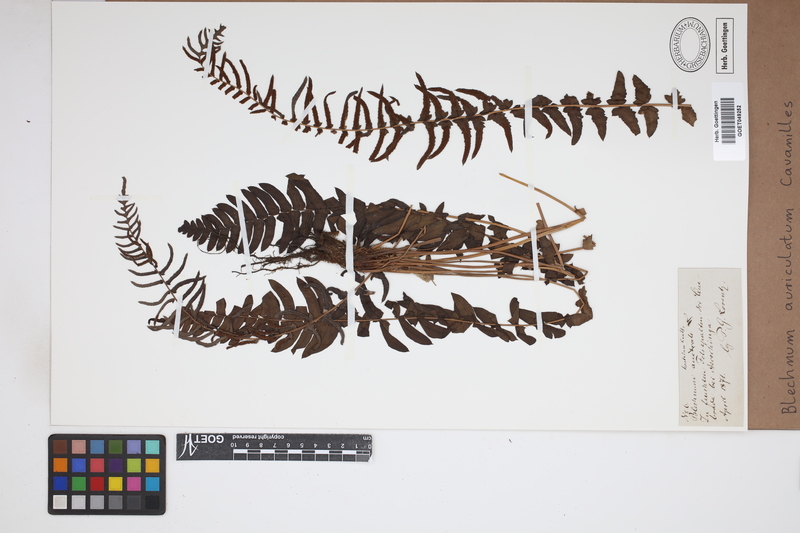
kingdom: Plantae
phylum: Tracheophyta
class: Polypodiopsida
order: Polypodiales
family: Blechnaceae
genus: Blechnum
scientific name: Blechnum auriculatum
